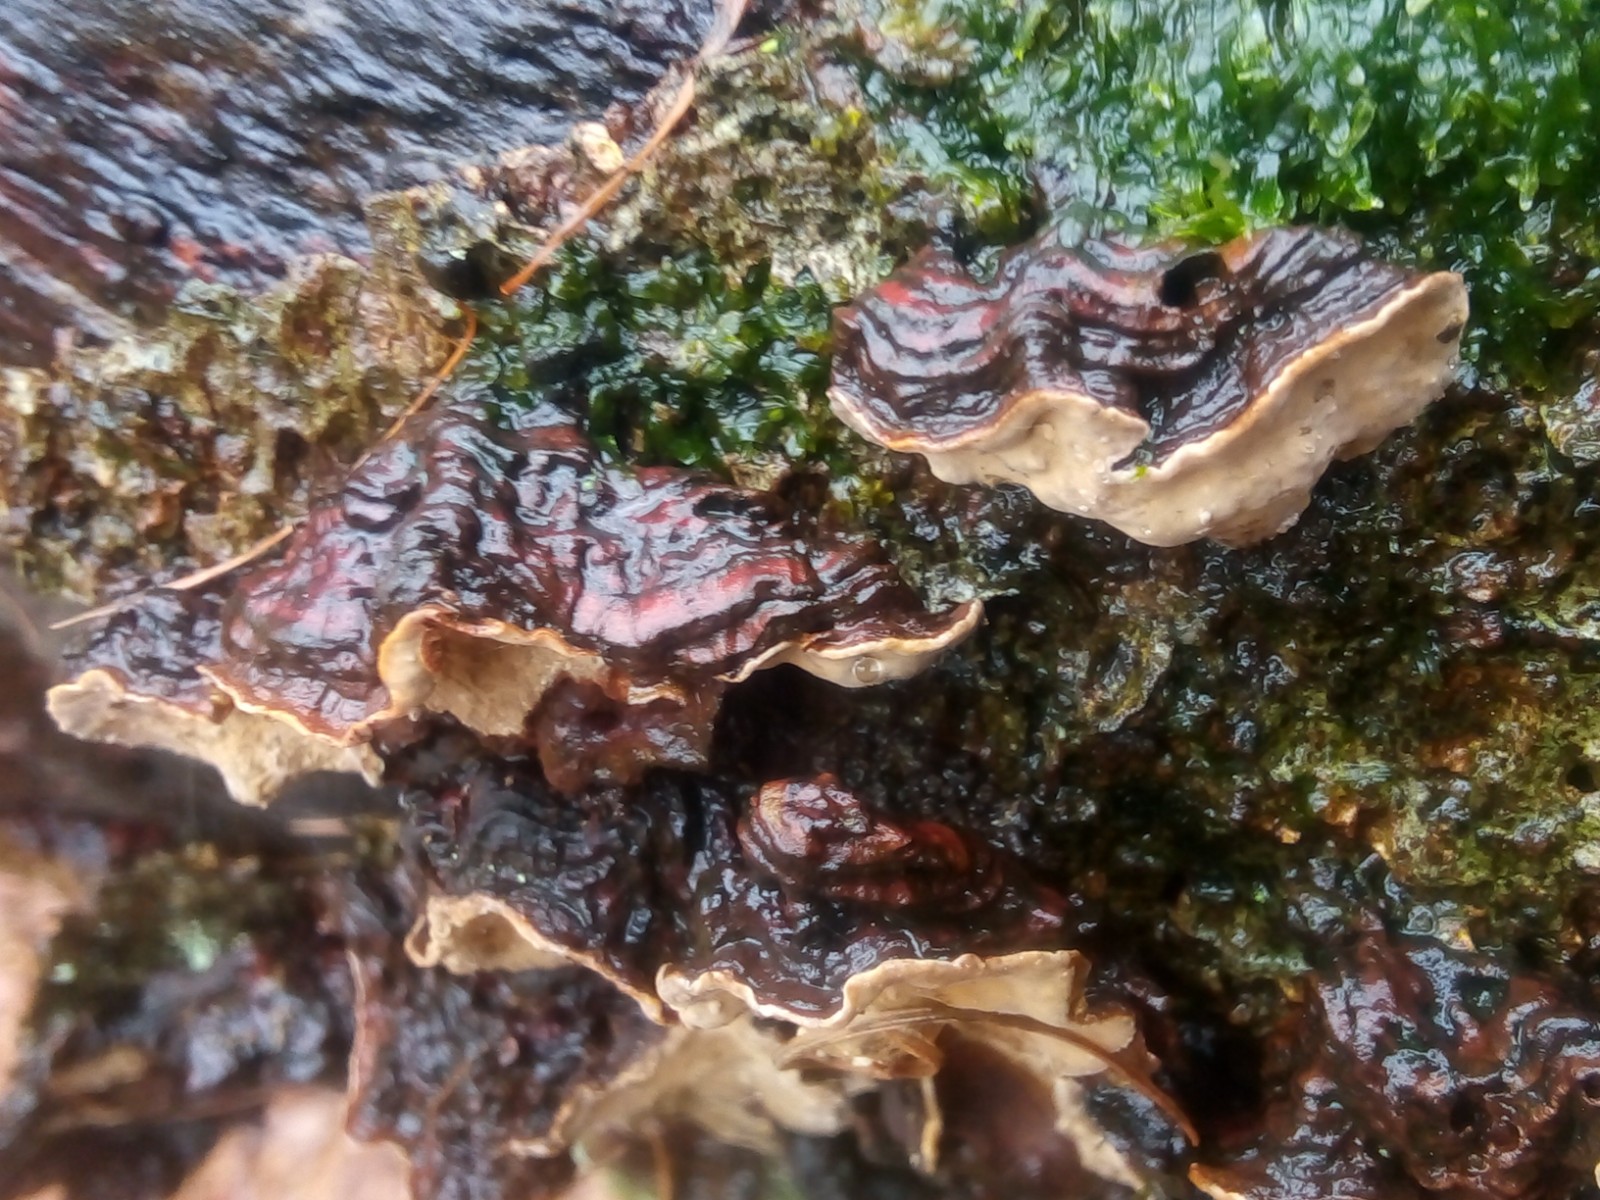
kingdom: Fungi
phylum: Basidiomycota
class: Agaricomycetes
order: Russulales
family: Stereaceae
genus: Stereum
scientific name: Stereum rugosum
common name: rynket lædersvamp
